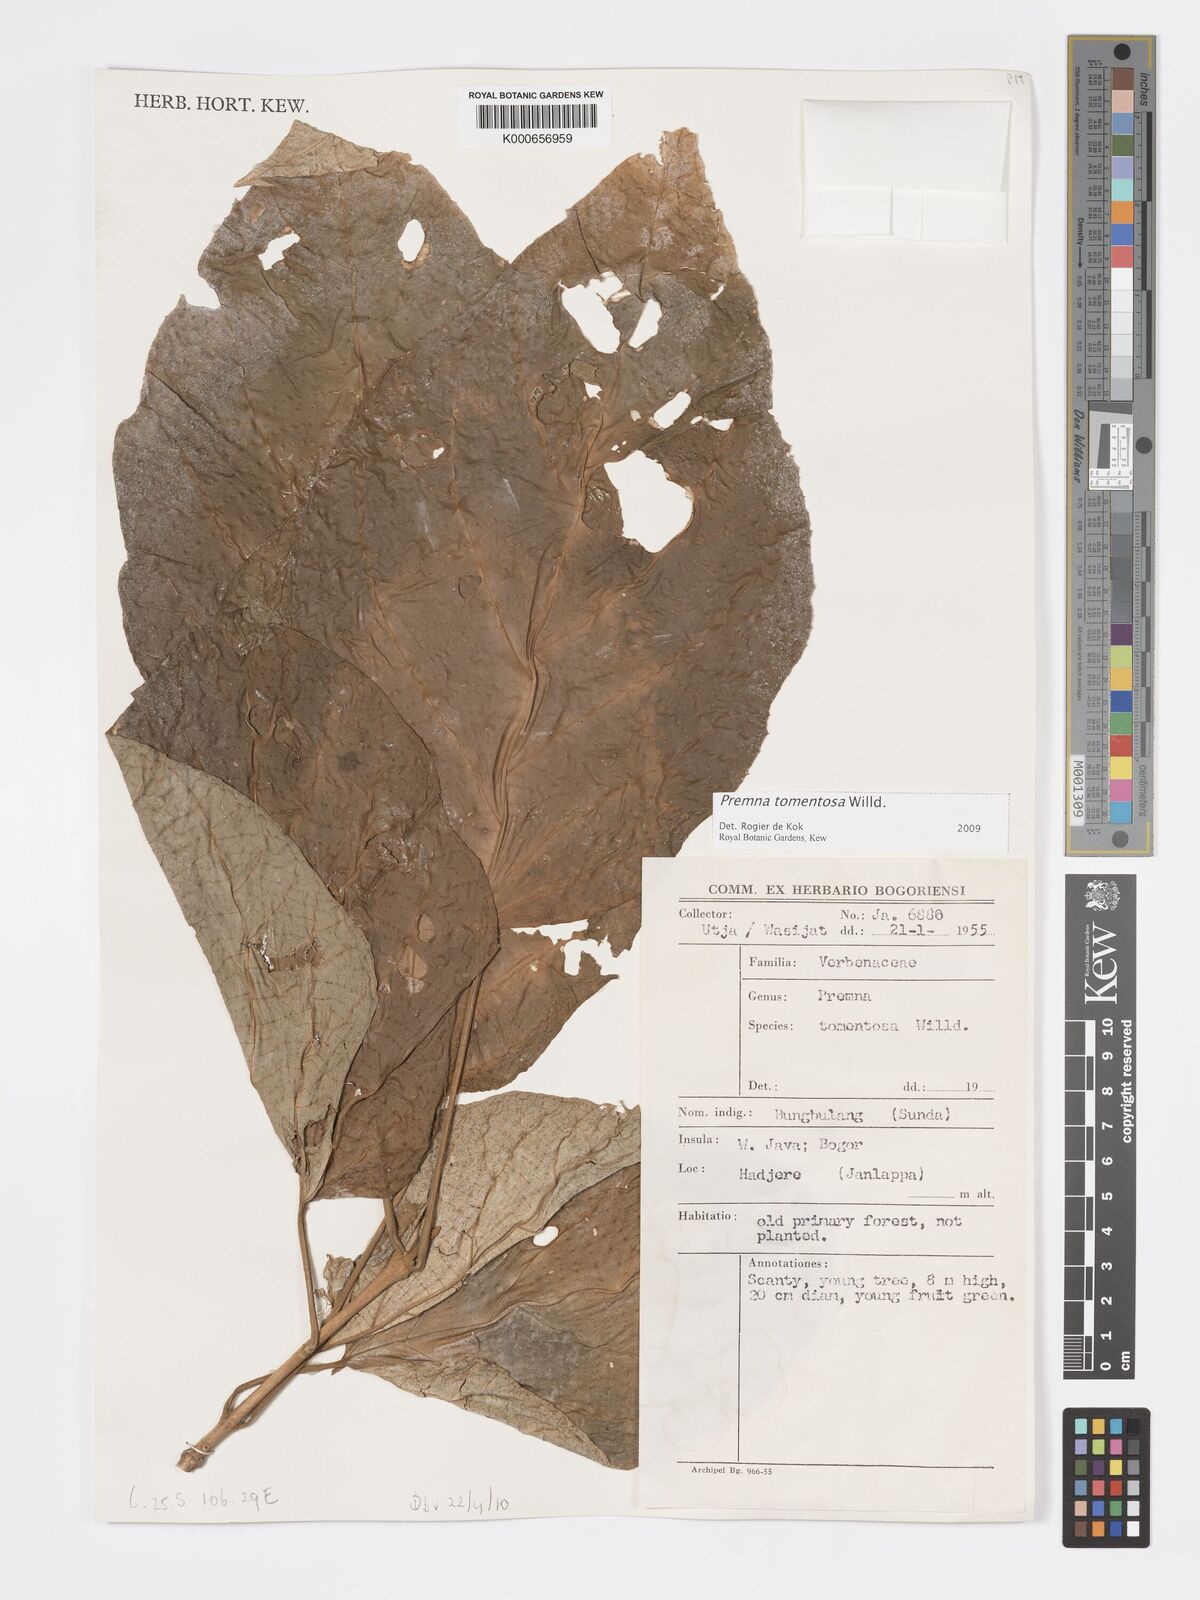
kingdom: Plantae
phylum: Tracheophyta
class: Magnoliopsida
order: Lamiales
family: Lamiaceae
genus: Premna
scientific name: Premna tomentosa
